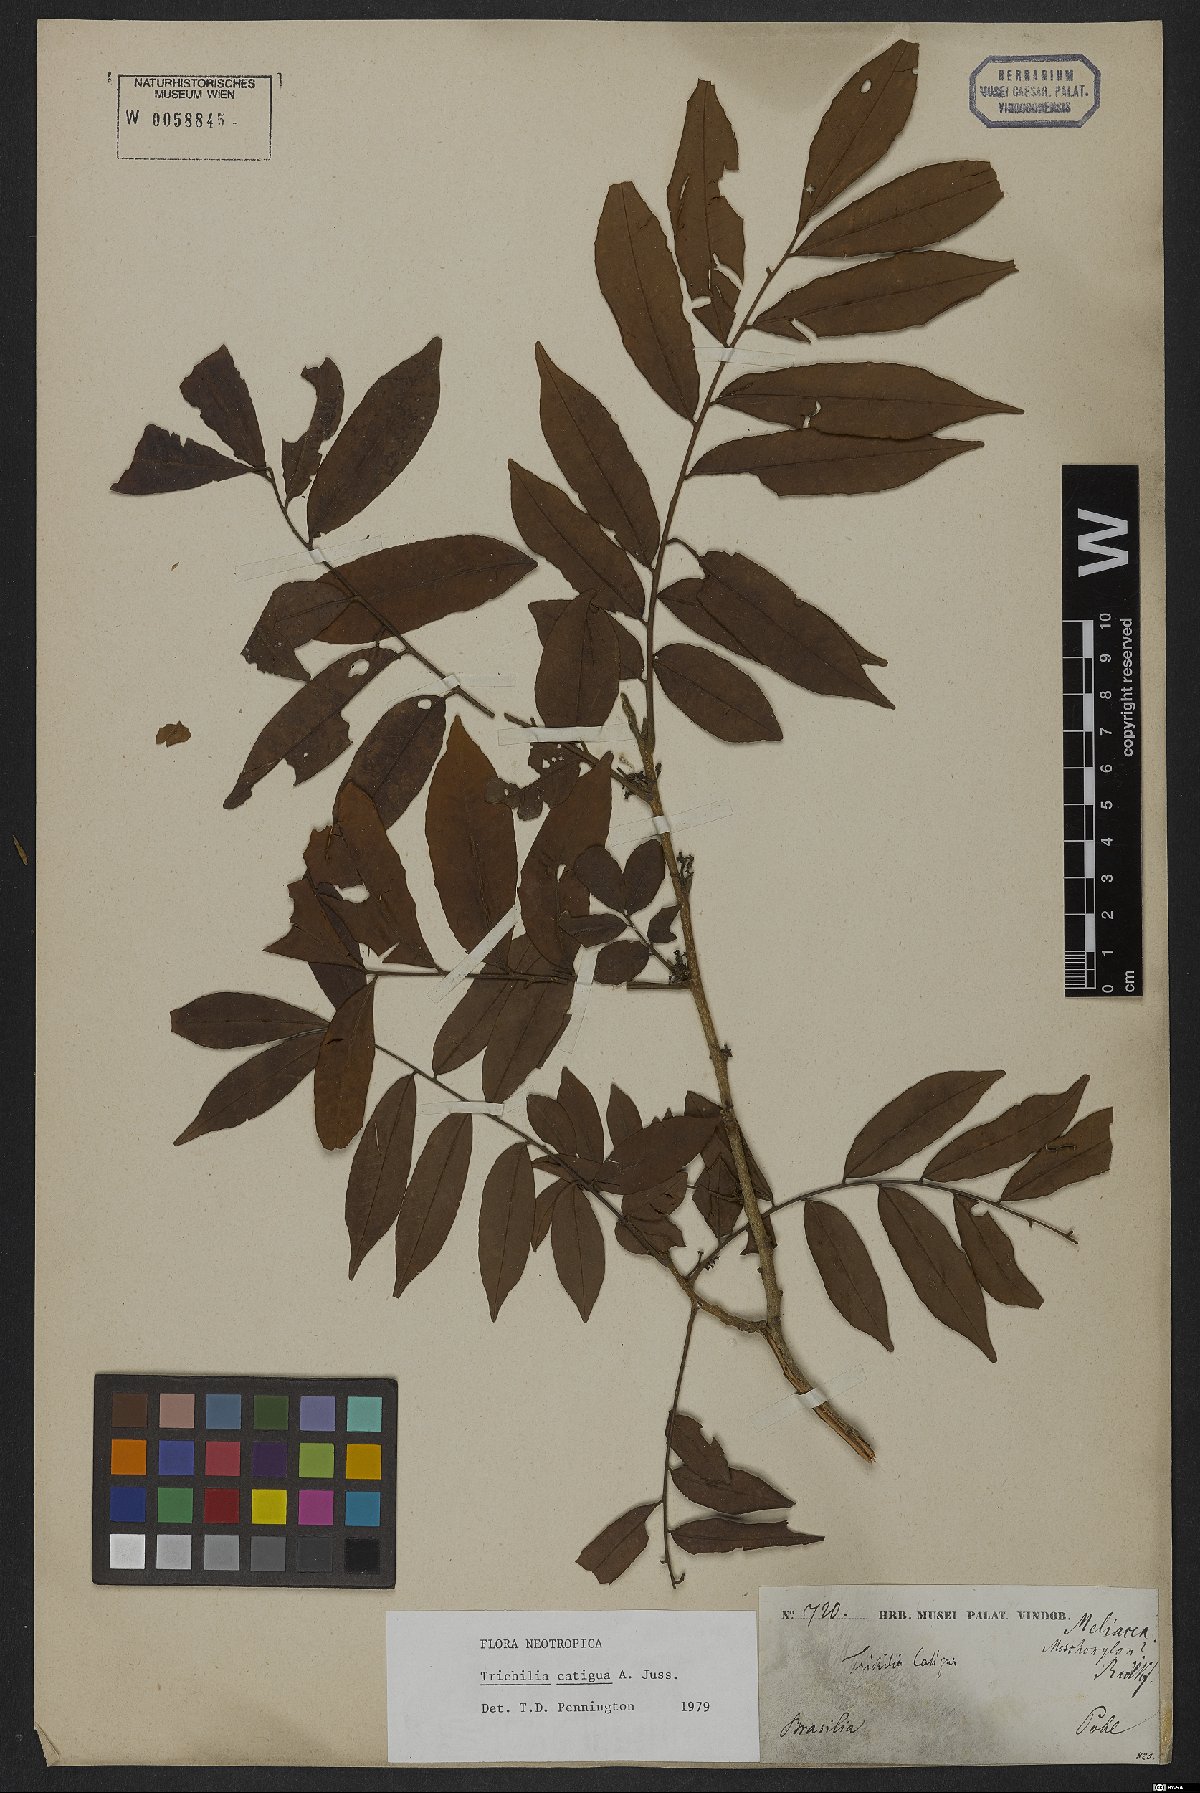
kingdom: Plantae
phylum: Tracheophyta
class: Magnoliopsida
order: Sapindales
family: Meliaceae
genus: Trichilia
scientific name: Trichilia catigua
